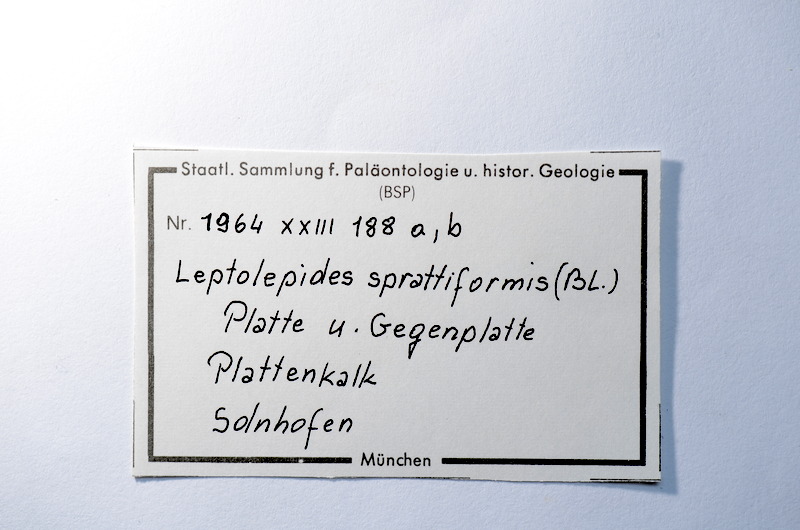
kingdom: Animalia
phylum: Chordata
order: Salmoniformes
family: Orthogonikleithridae
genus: Leptolepides
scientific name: Leptolepides sprattiformis
